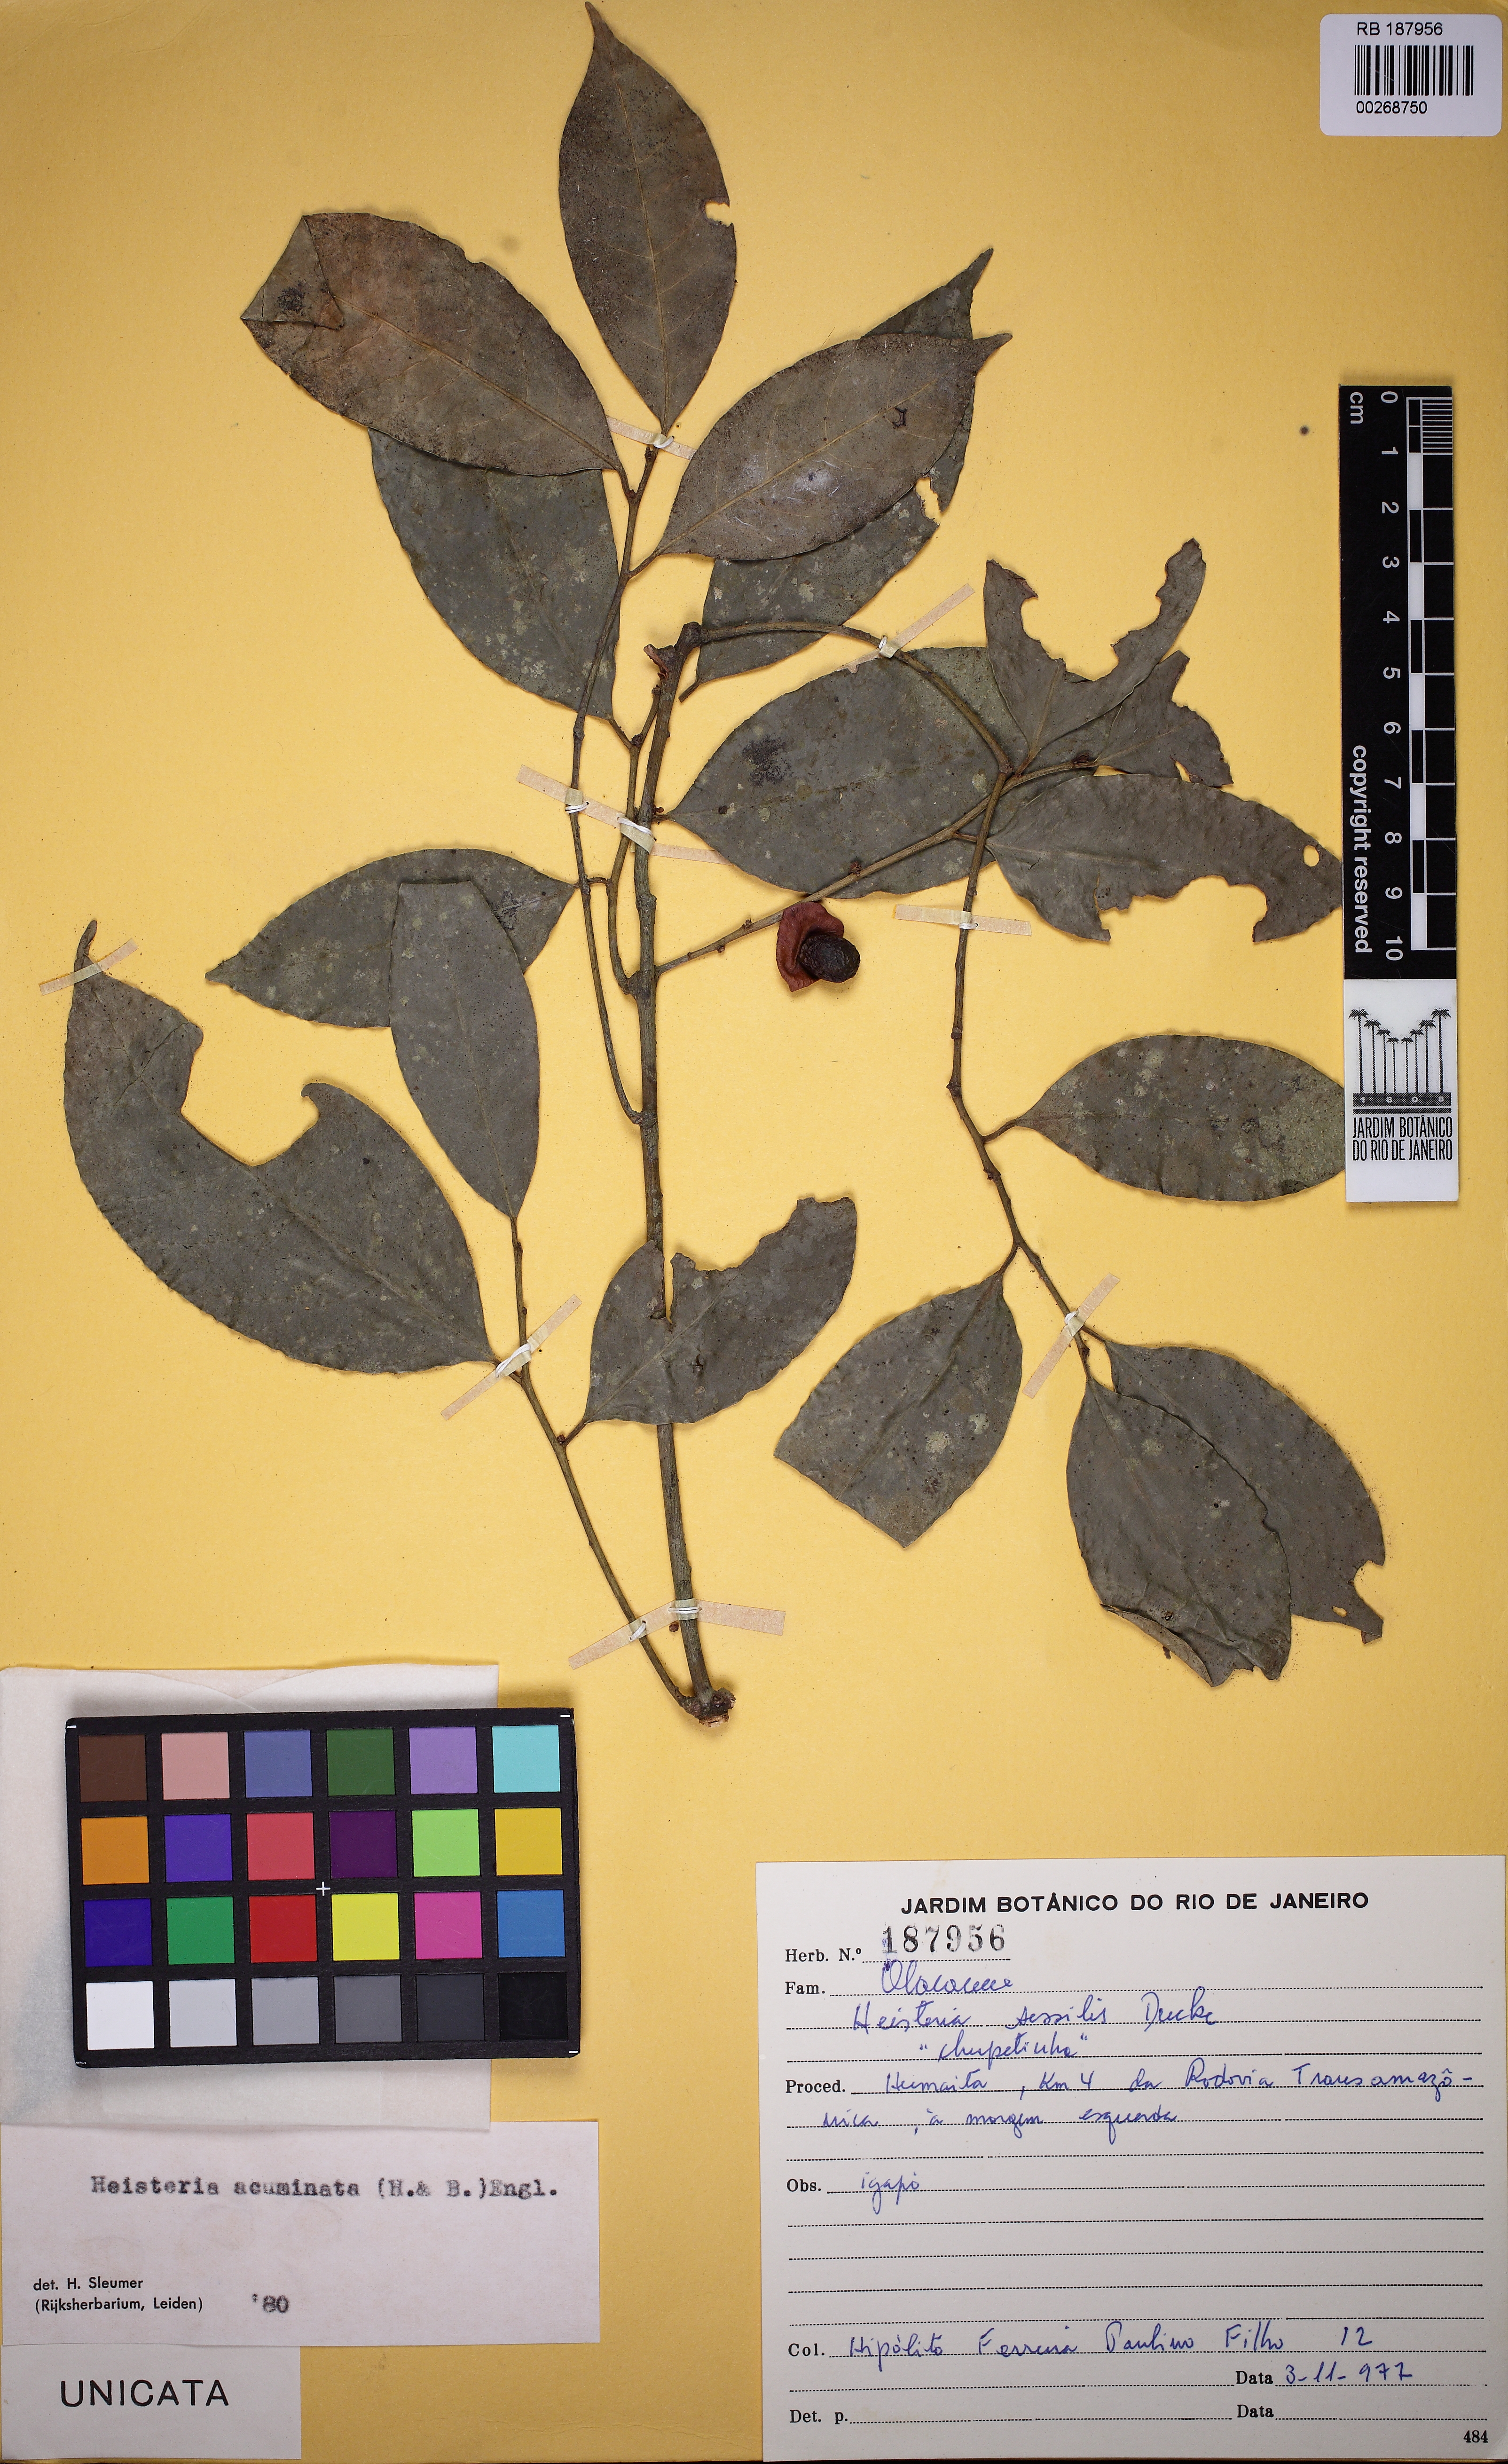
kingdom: Plantae
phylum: Tracheophyta
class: Magnoliopsida
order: Santalales
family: Erythropalaceae
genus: Heisteria
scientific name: Heisteria acuminata
